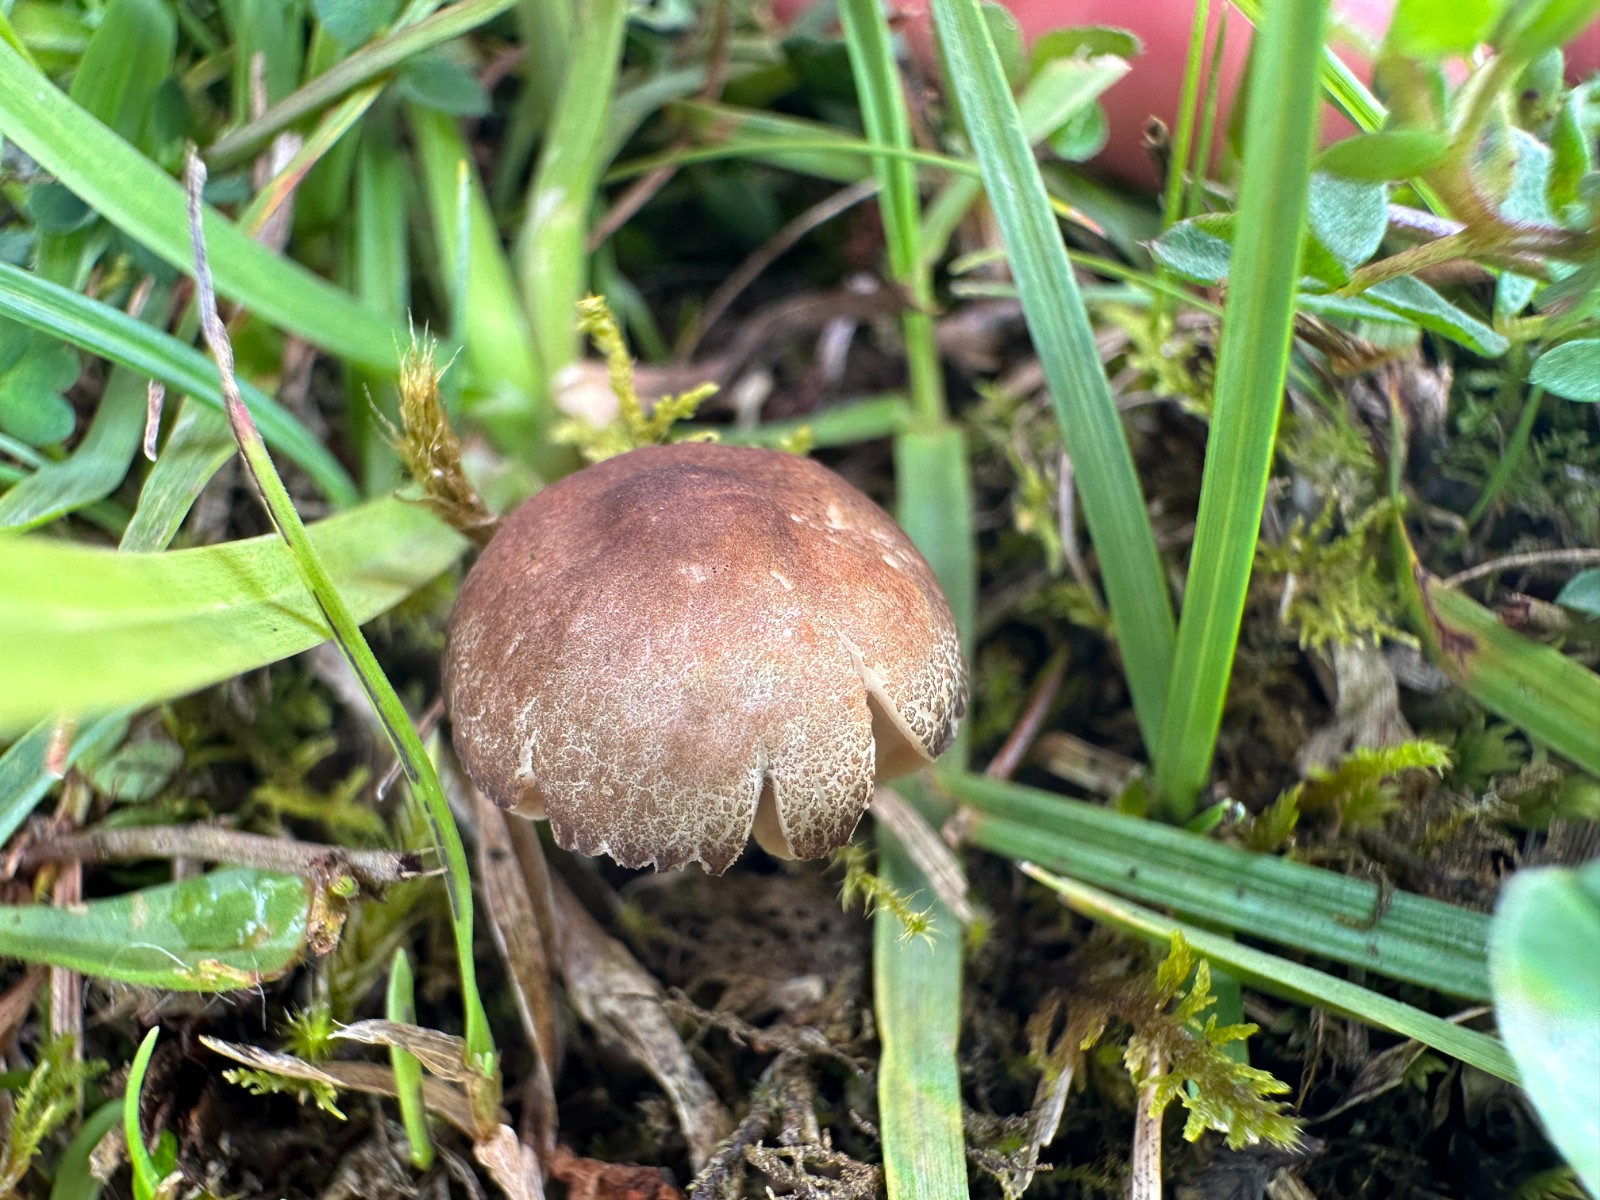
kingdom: Fungi
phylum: Basidiomycota
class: Agaricomycetes
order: Agaricales
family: Pluteaceae
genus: Pluteus
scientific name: Pluteus
